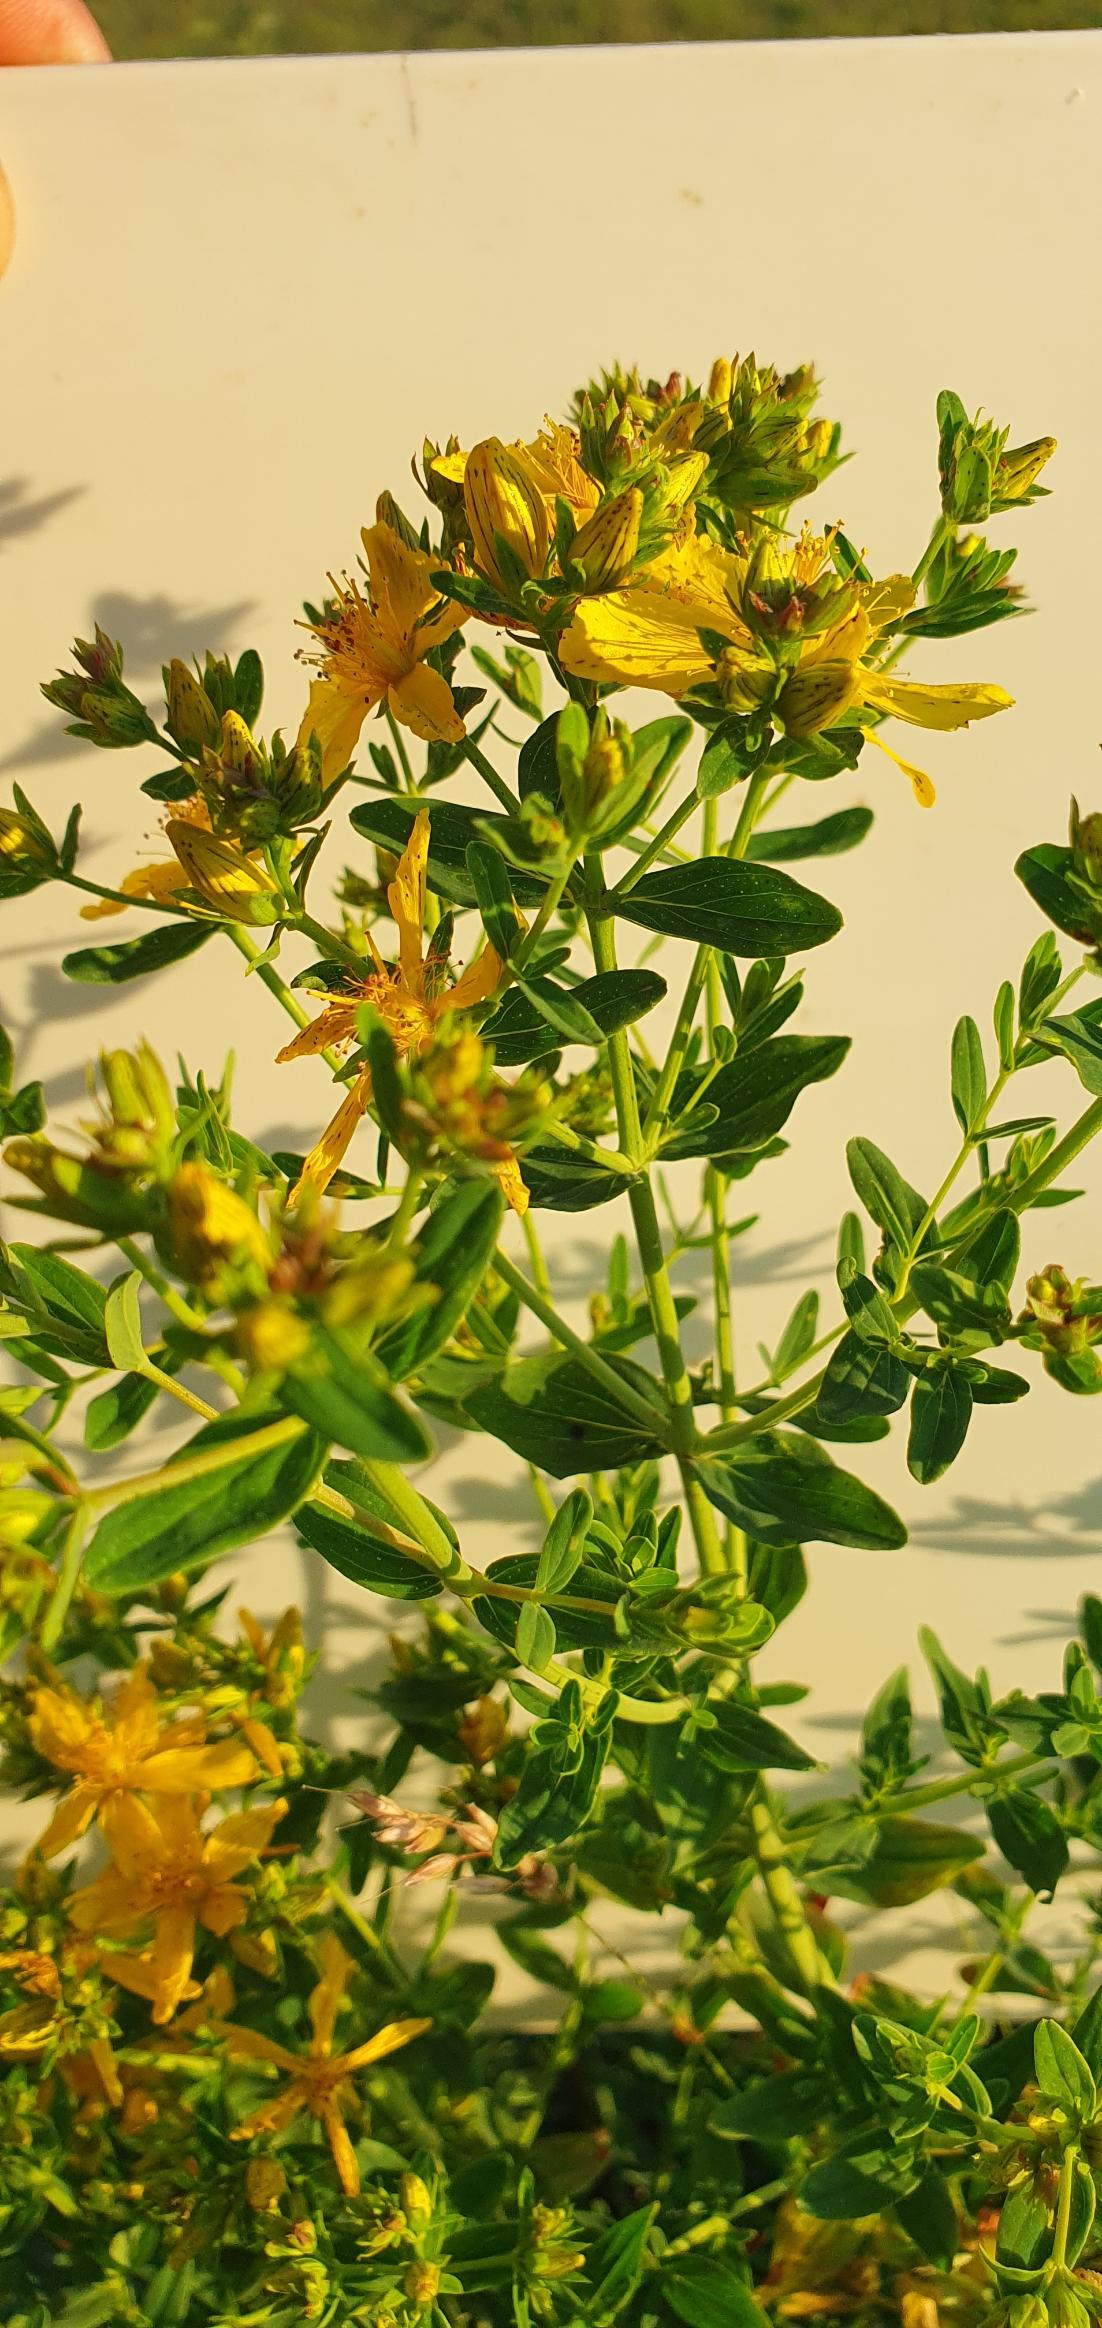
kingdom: Plantae
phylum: Tracheophyta
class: Magnoliopsida
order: Malpighiales
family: Hypericaceae
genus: Hypericum
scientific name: Hypericum perforatum
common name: Prikbladet perikon
